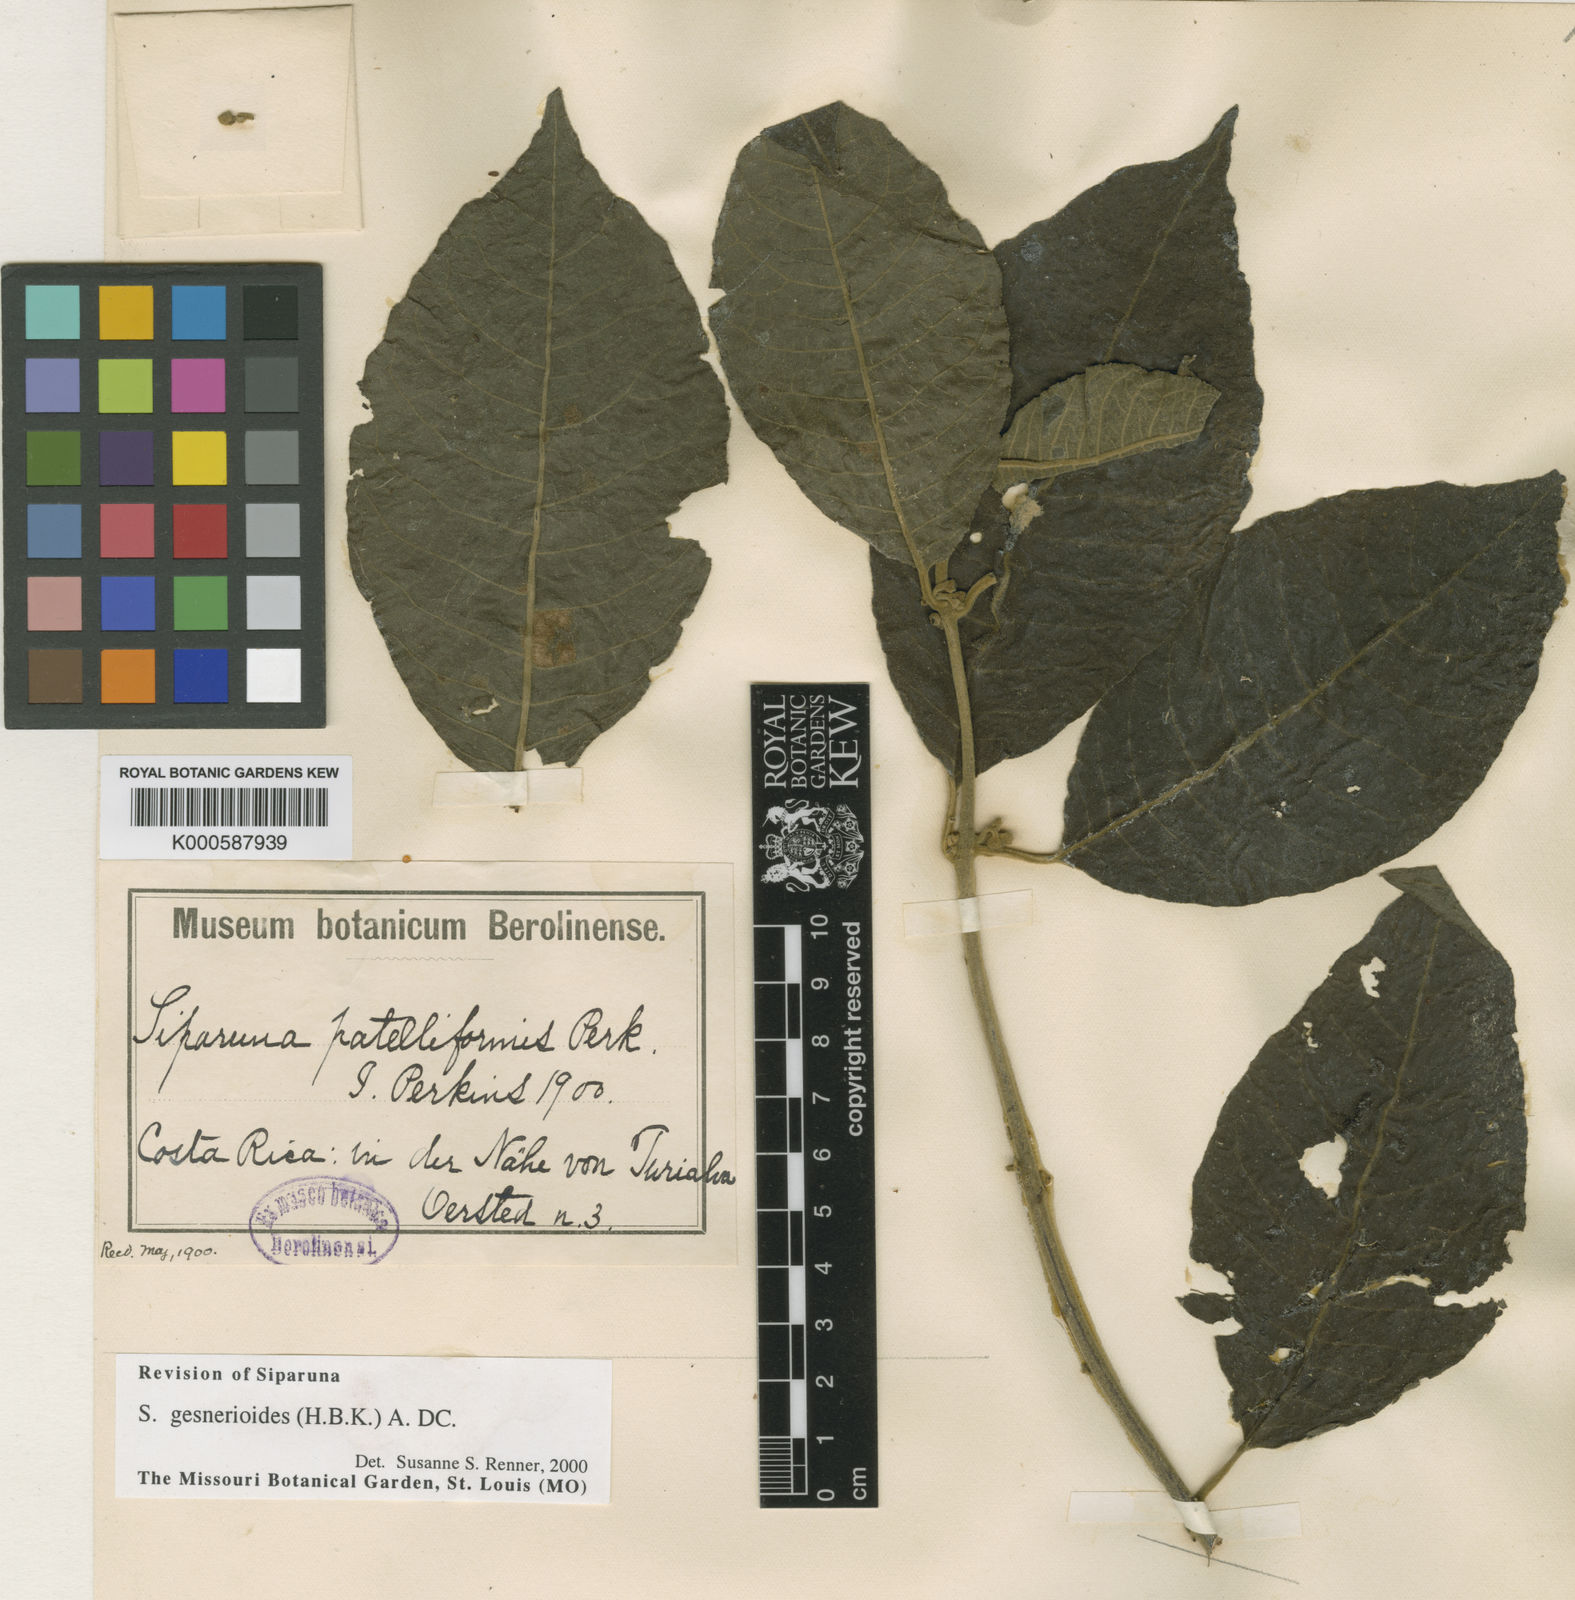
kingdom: Plantae
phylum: Tracheophyta
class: Magnoliopsida
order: Laurales
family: Siparunaceae
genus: Siparuna
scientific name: Siparuna gesnerioides
